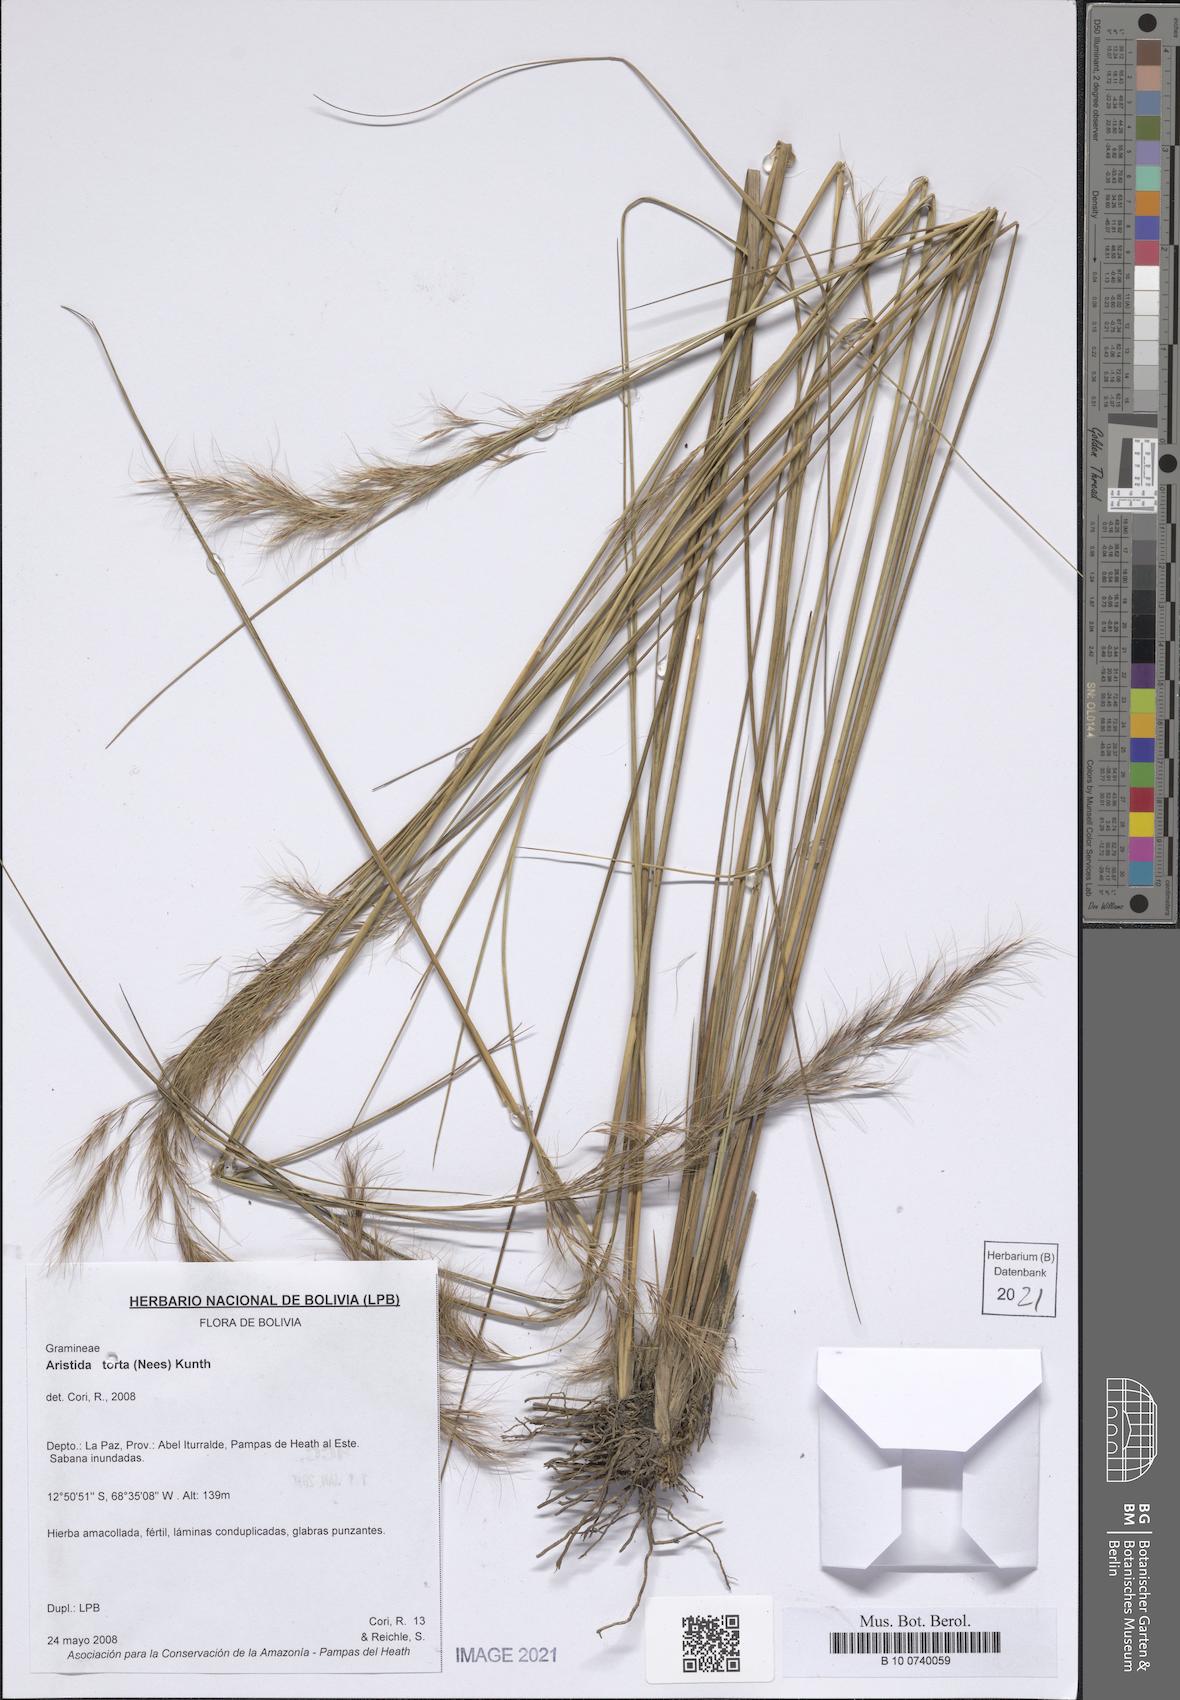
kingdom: Plantae
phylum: Tracheophyta
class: Liliopsida
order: Poales
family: Poaceae
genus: Aristida
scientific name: Aristida torta
